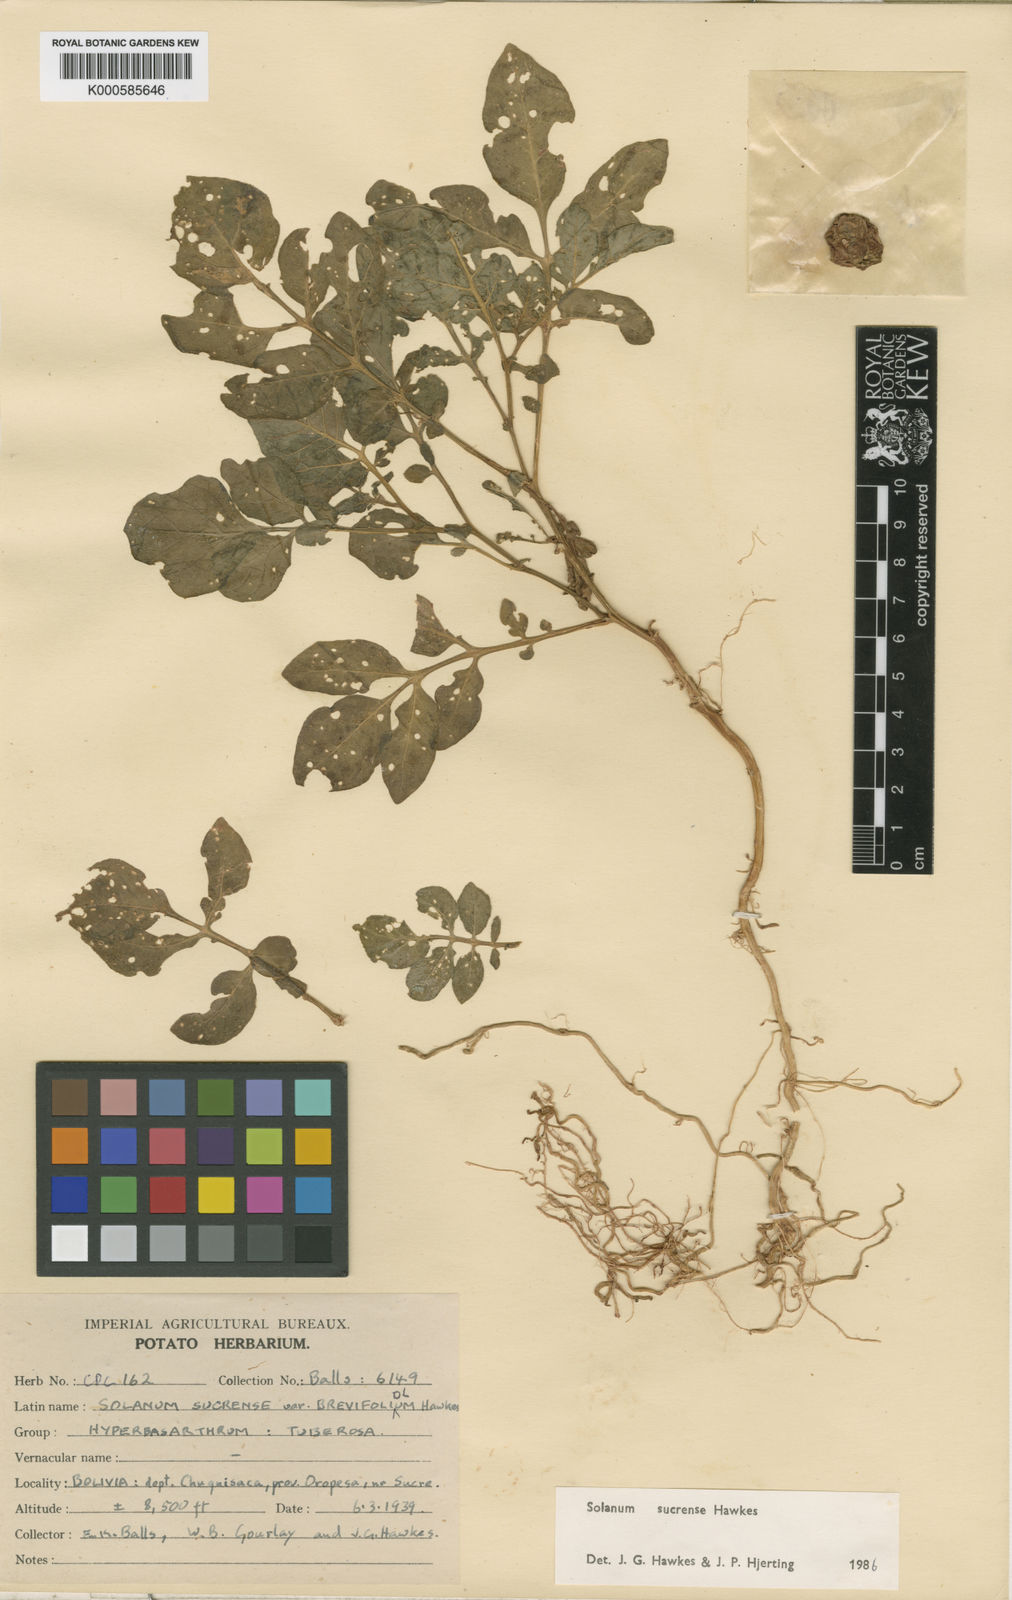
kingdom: Plantae
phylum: Tracheophyta
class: Magnoliopsida
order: Solanales
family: Solanaceae
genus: Solanum
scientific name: Solanum brevicaule
